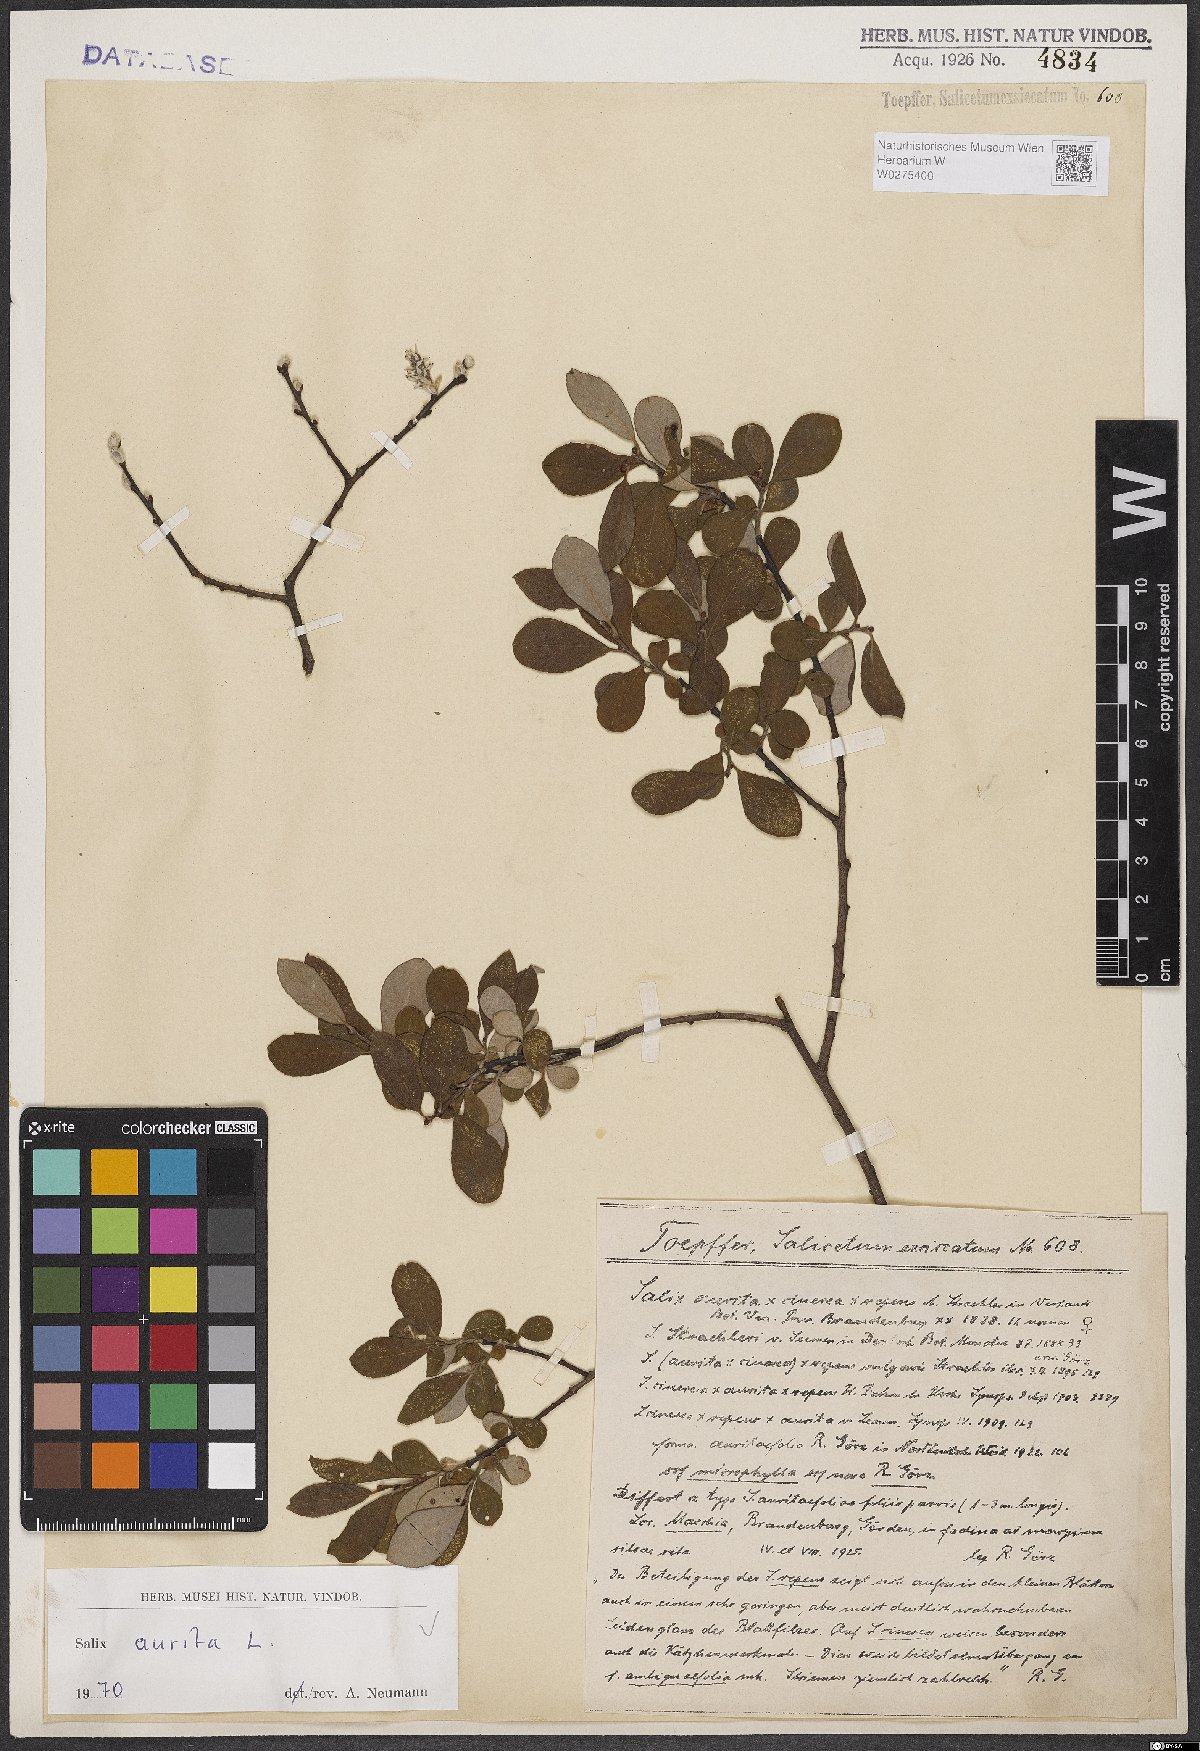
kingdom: Plantae
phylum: Tracheophyta
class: Magnoliopsida
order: Malpighiales
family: Salicaceae
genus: Salix
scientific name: Salix aurita
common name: Eared willow
